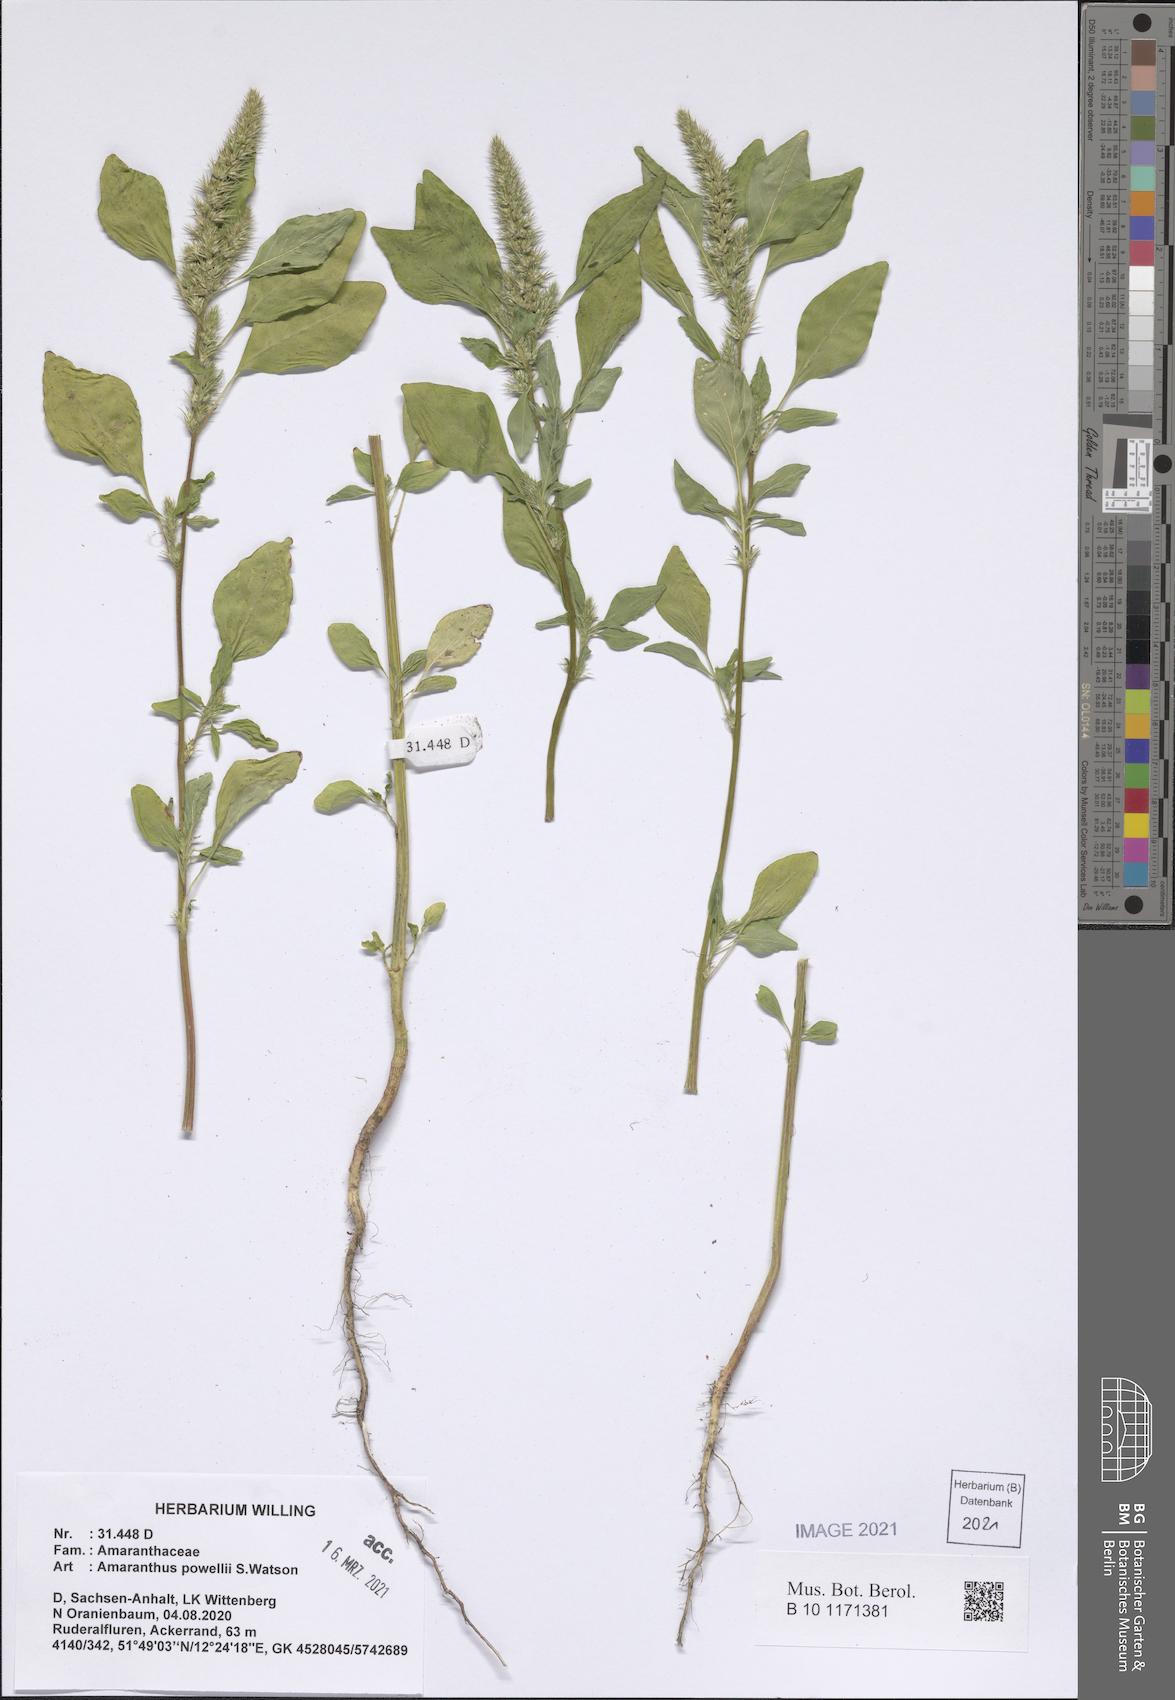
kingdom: Plantae
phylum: Tracheophyta
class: Magnoliopsida
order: Caryophyllales
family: Amaranthaceae
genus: Amaranthus
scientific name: Amaranthus powellii
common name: Powell's amaranth
